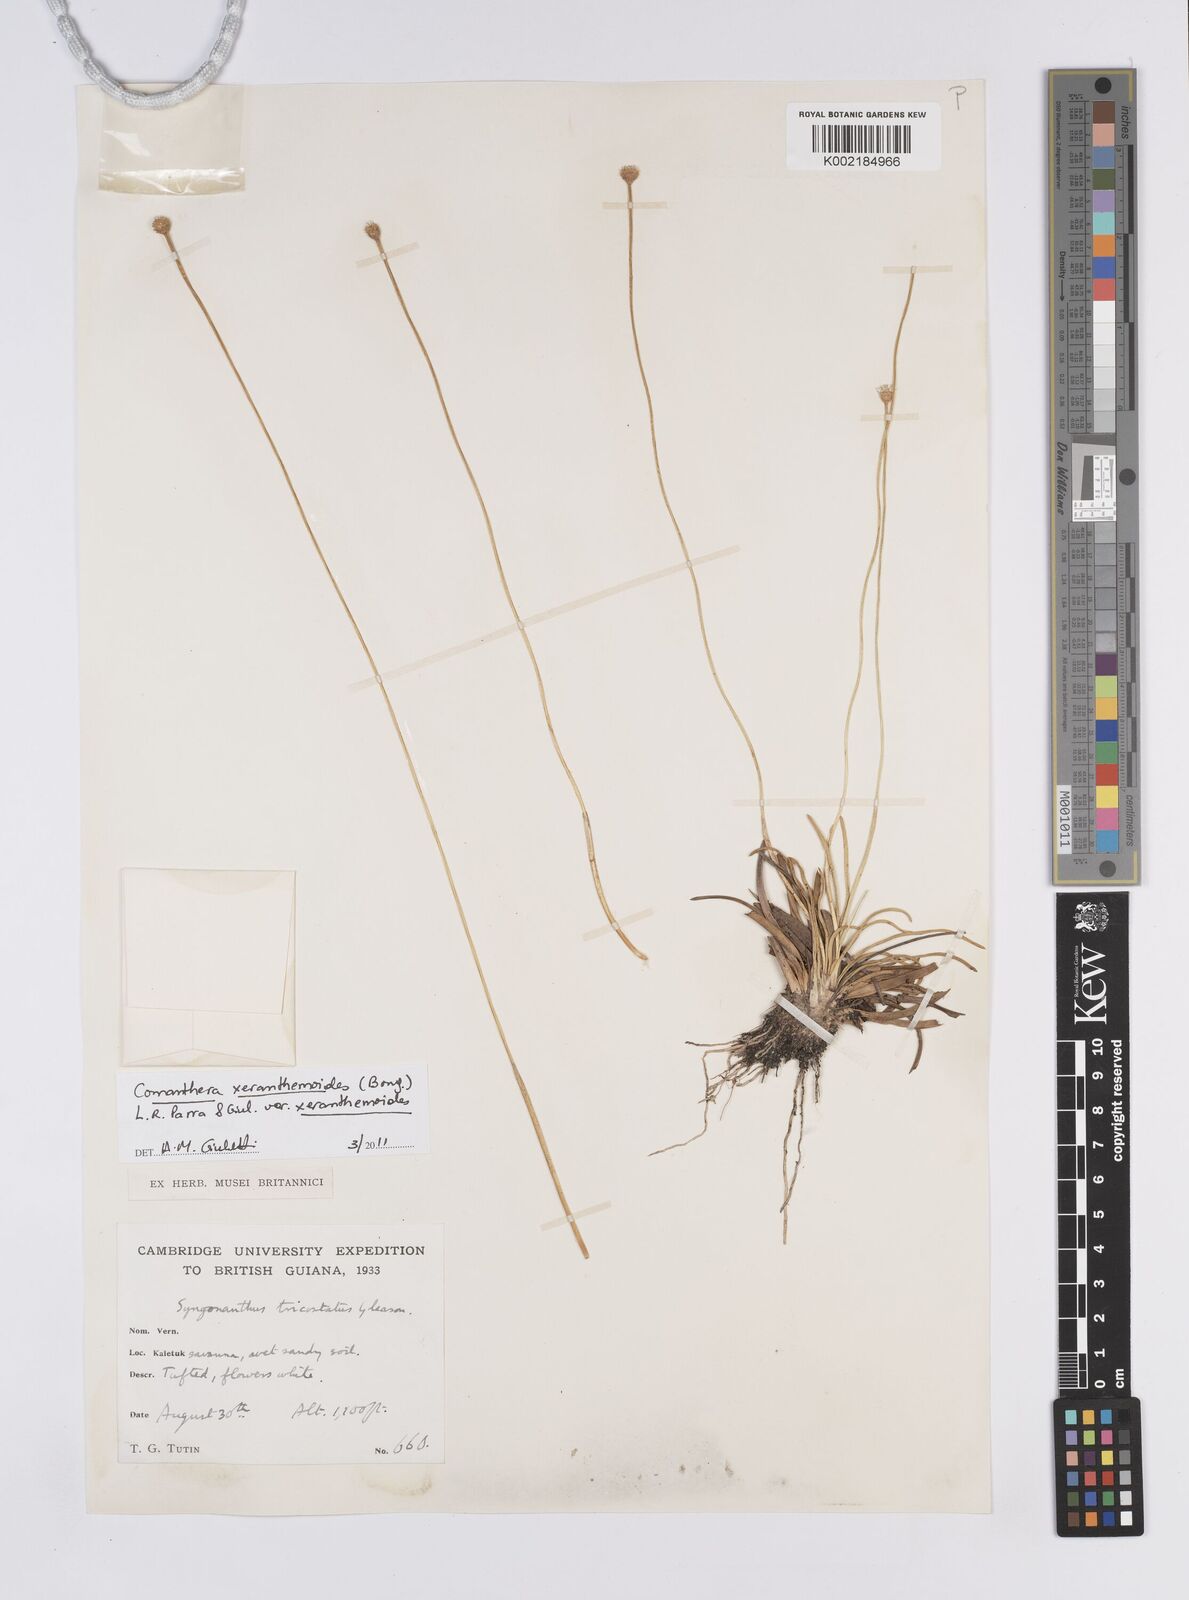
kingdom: Plantae
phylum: Tracheophyta
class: Liliopsida
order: Poales
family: Eriocaulaceae
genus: Comanthera
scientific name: Comanthera xeranthemoides
